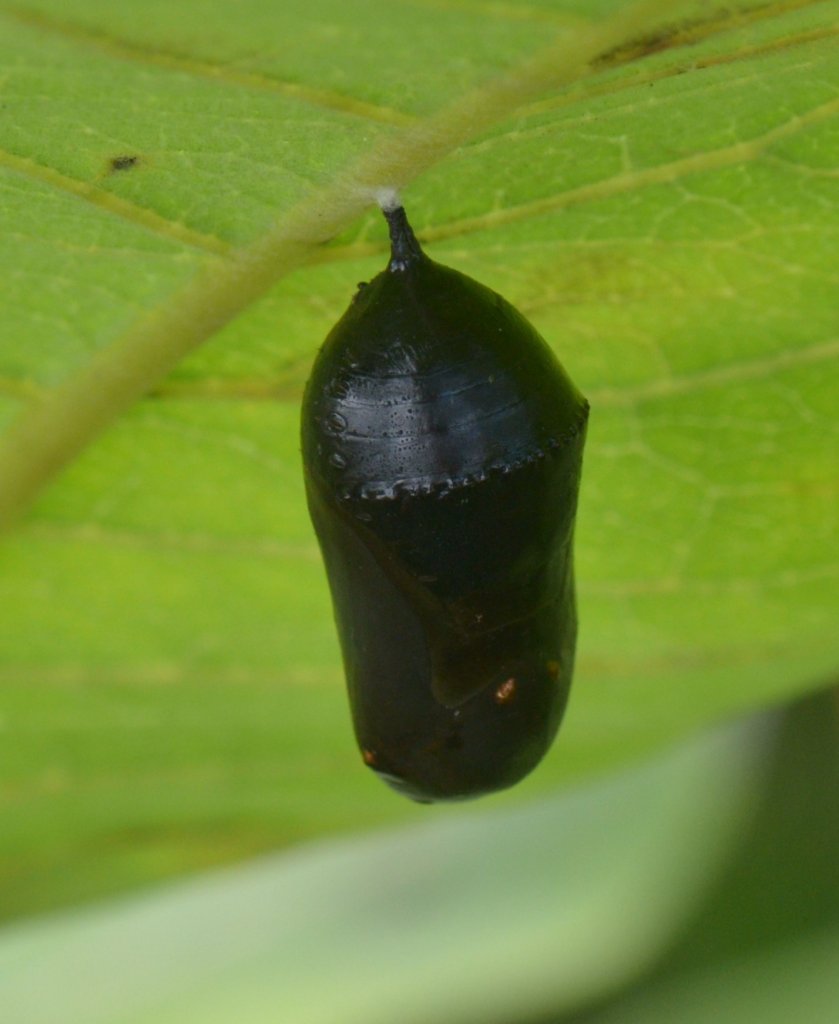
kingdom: Animalia
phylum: Arthropoda
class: Insecta
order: Lepidoptera
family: Nymphalidae
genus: Danaus
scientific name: Danaus plexippus
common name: Monarch
